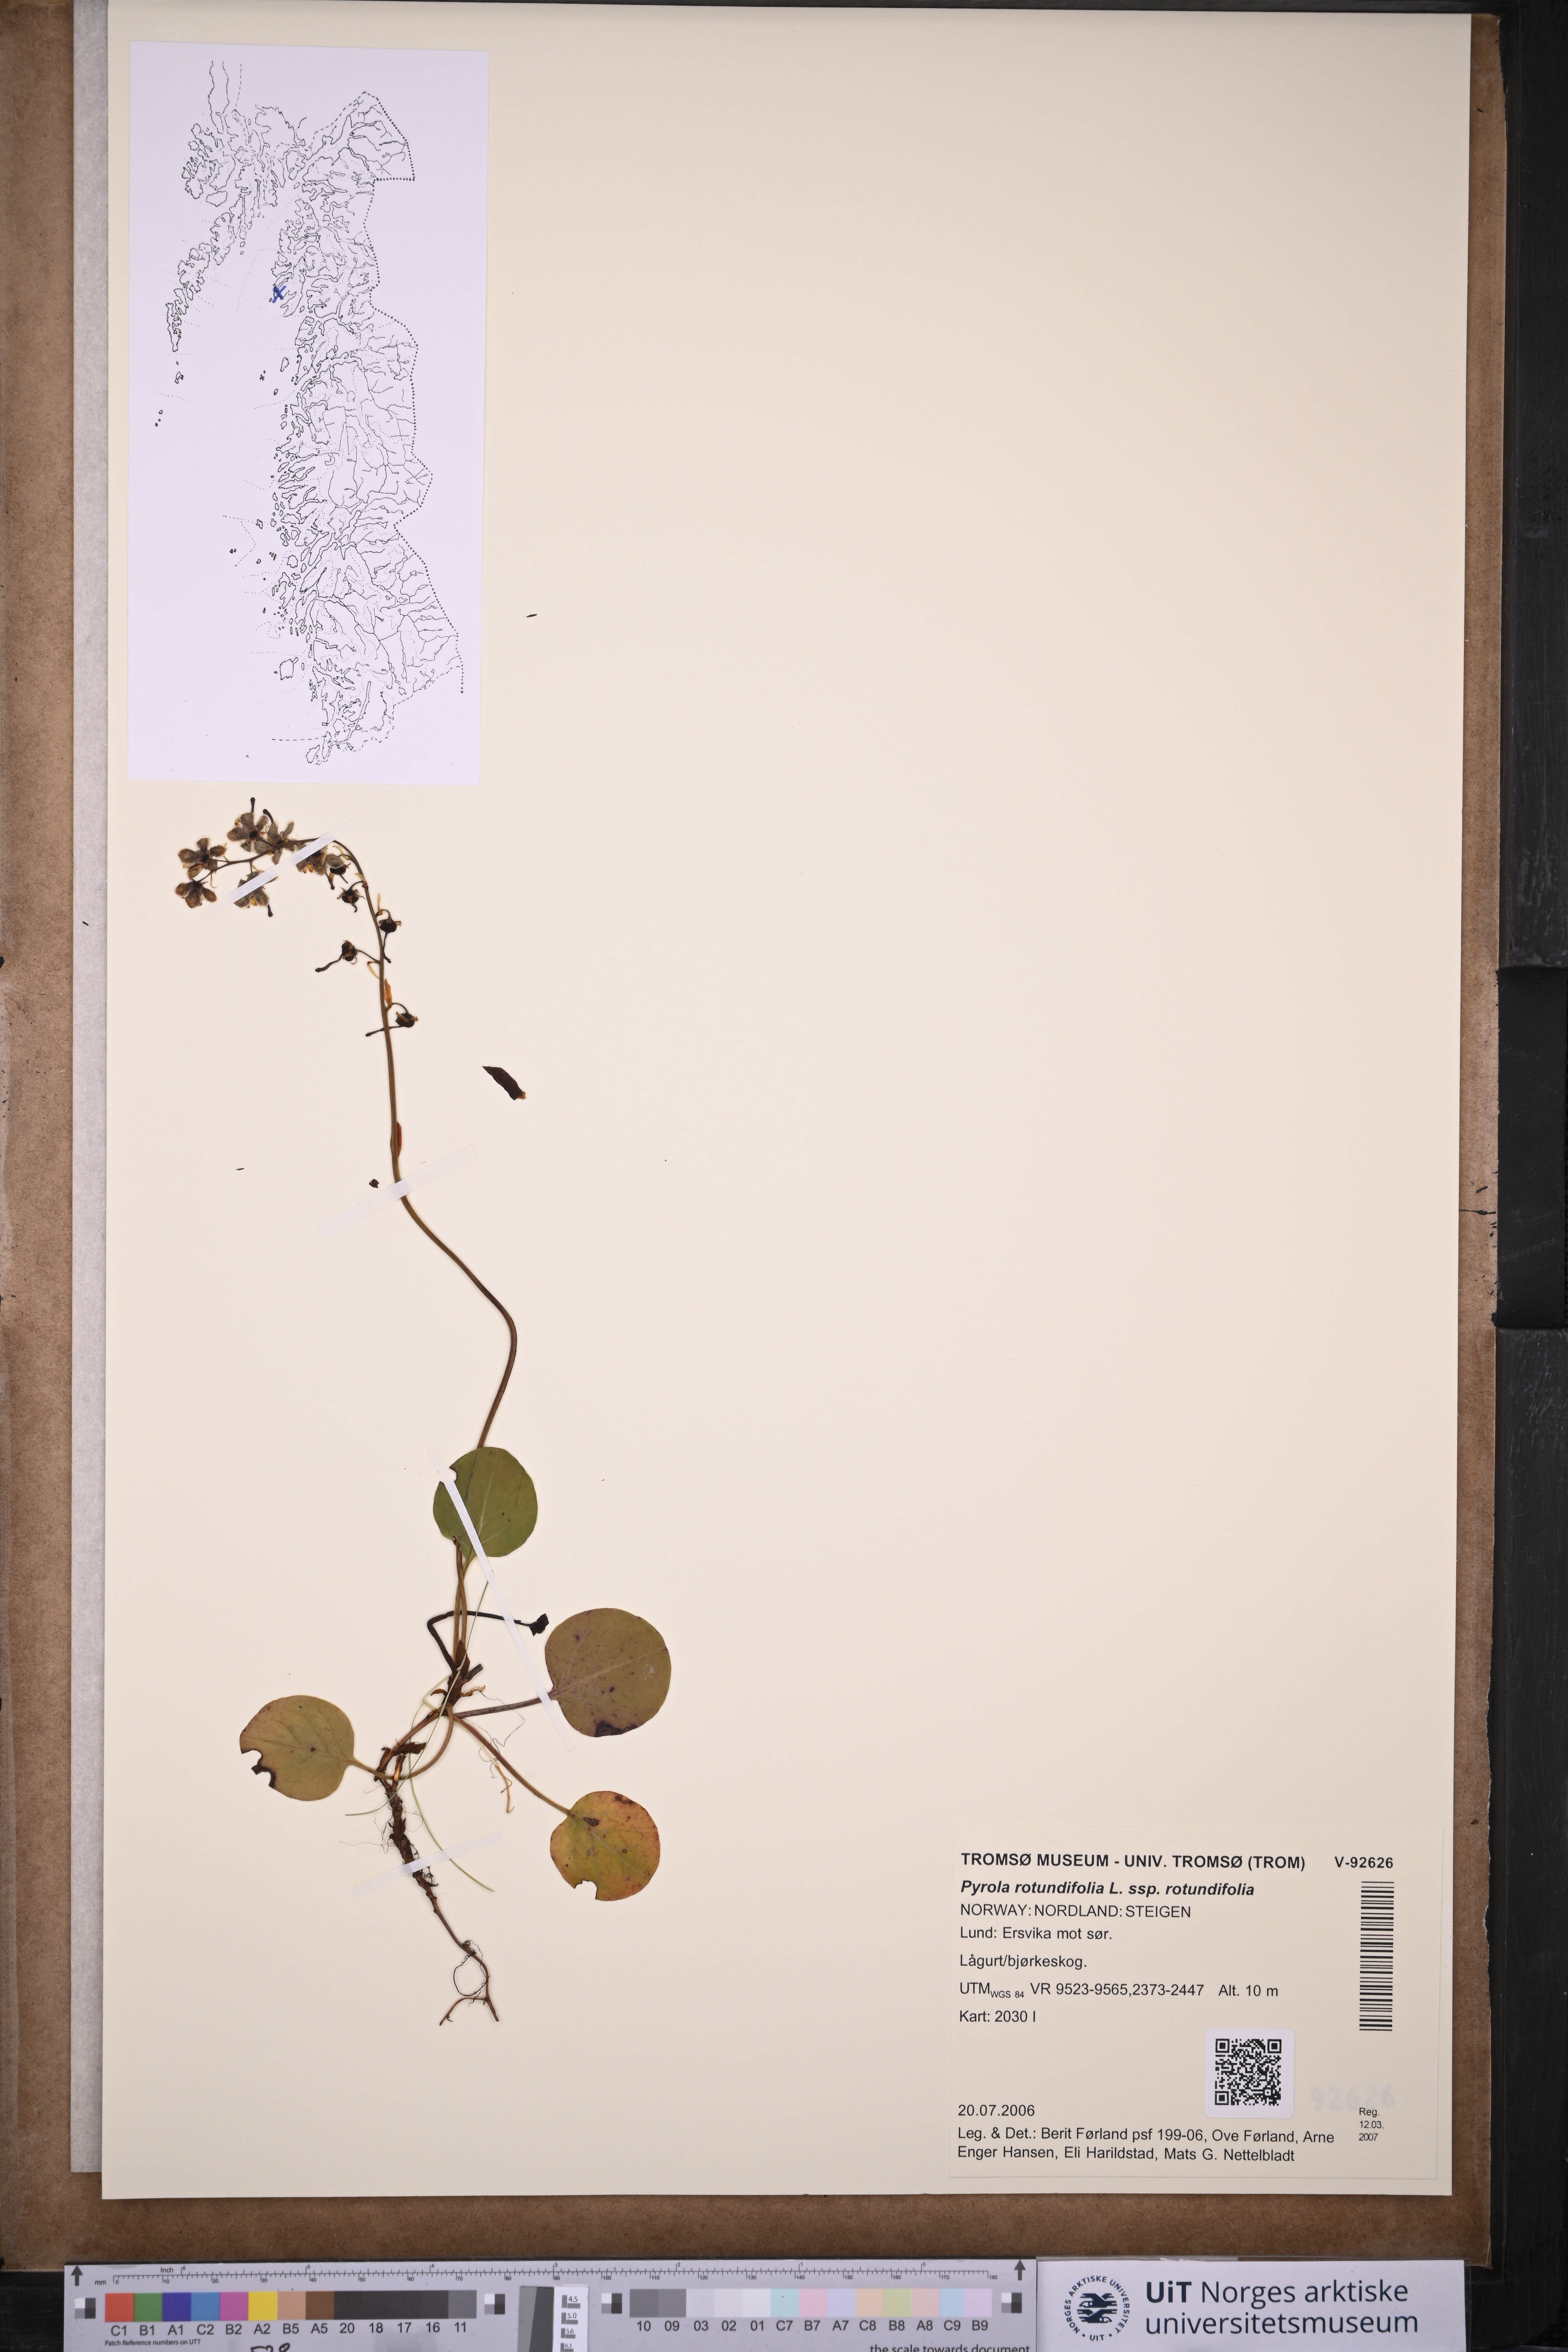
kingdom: Plantae
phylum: Tracheophyta
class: Magnoliopsida
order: Ericales
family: Ericaceae
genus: Pyrola
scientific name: Pyrola rotundifolia
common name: Round-leaved wintergreen
